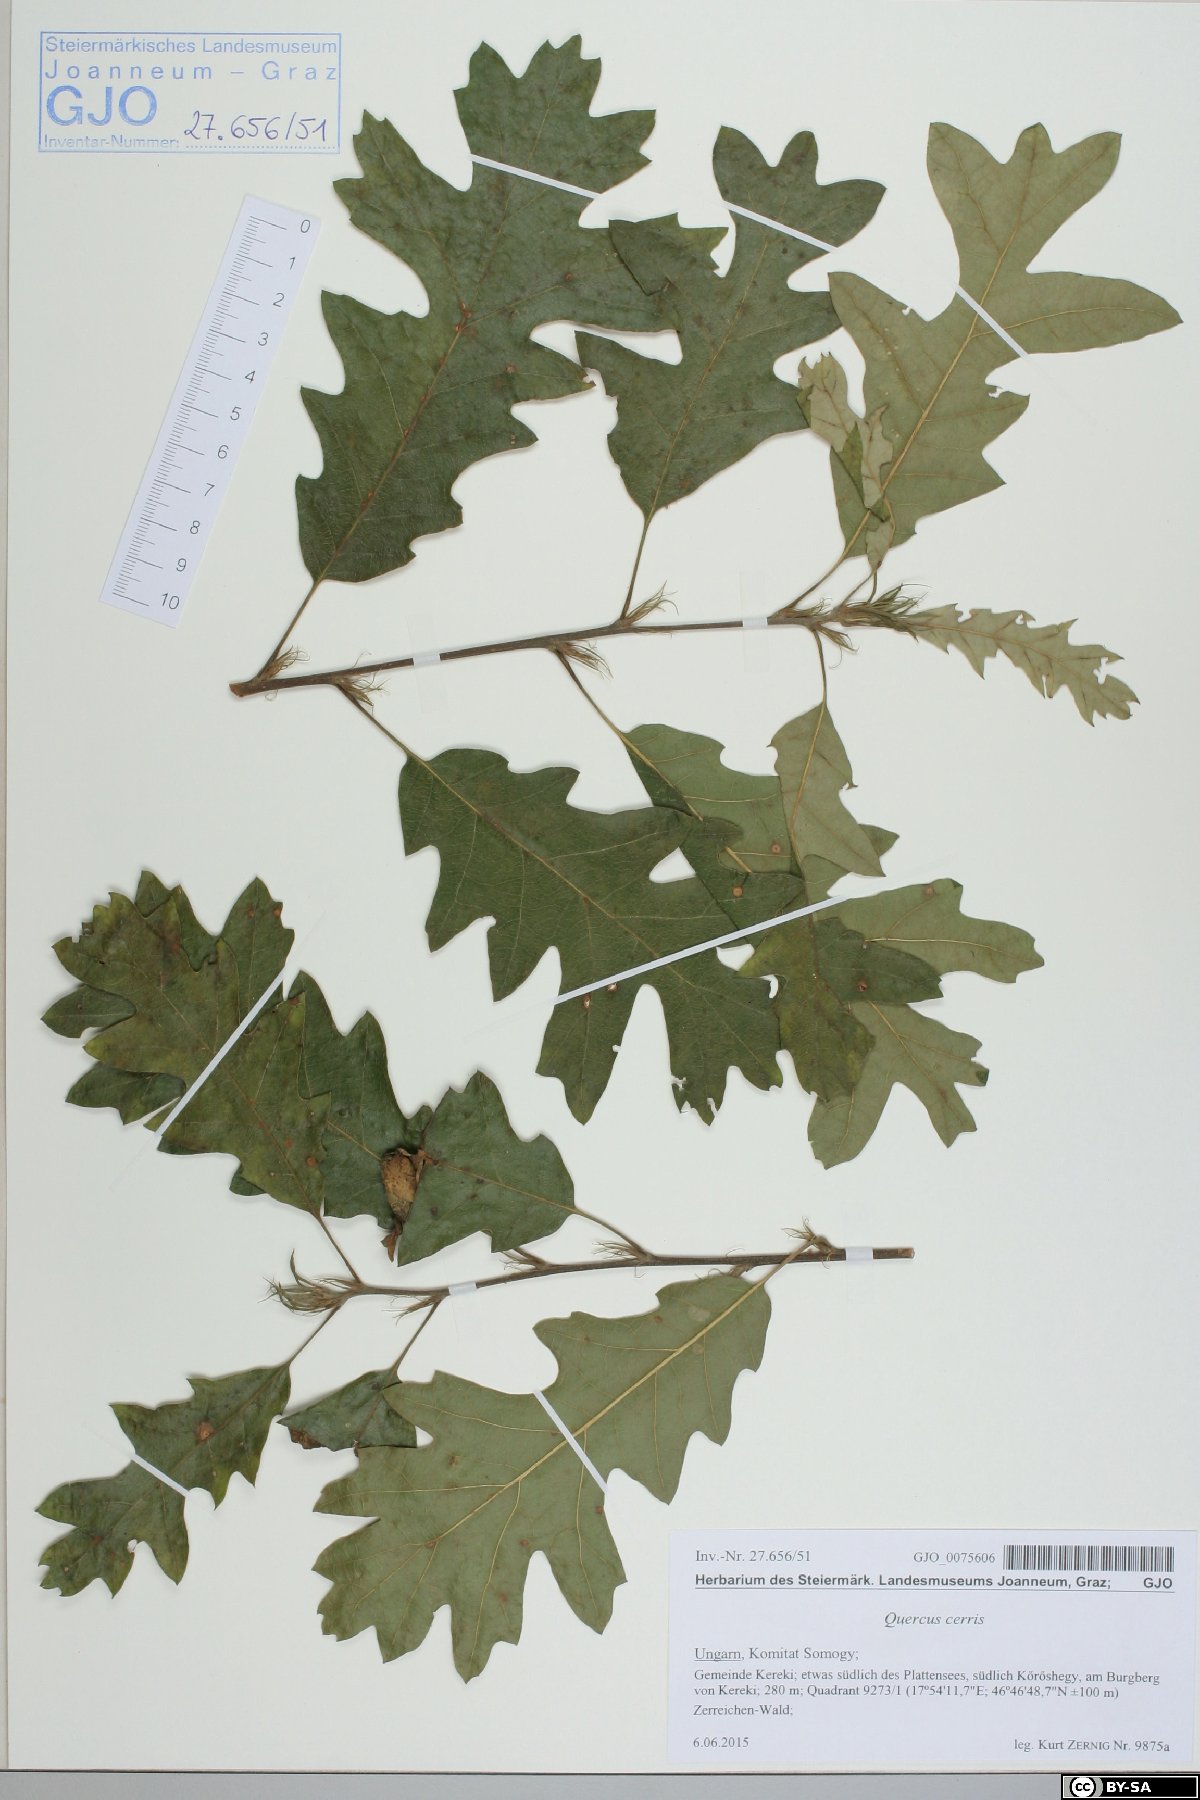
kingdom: Plantae
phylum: Tracheophyta
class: Magnoliopsida
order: Fagales
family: Fagaceae
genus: Quercus
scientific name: Quercus cerris
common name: Turkey oak
